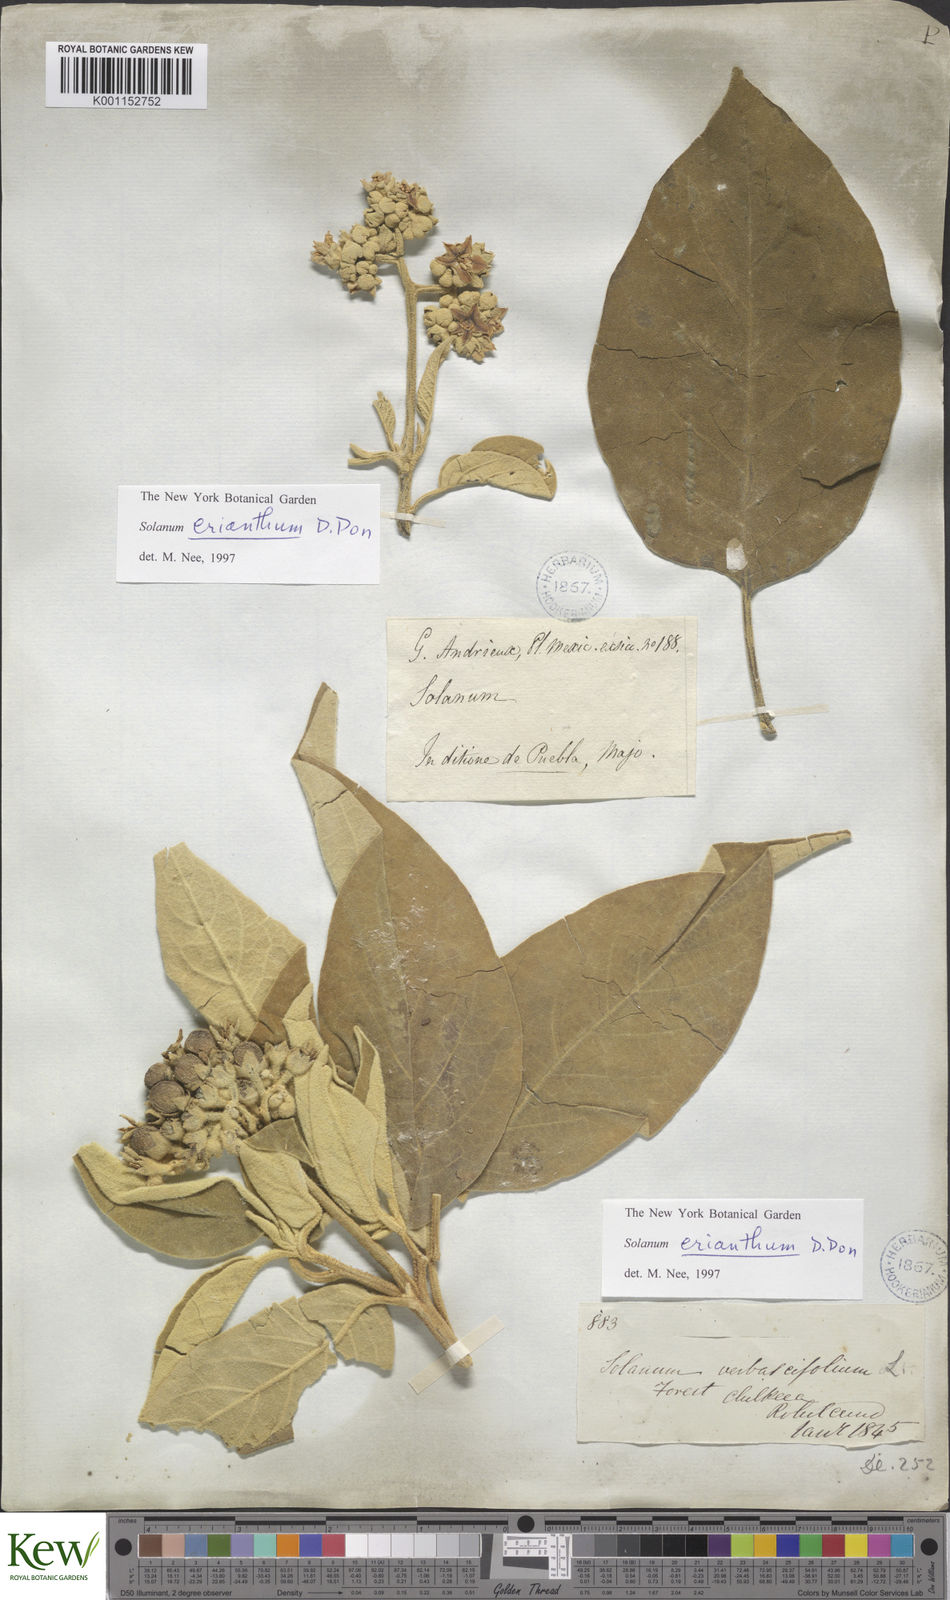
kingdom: Plantae
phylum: Tracheophyta
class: Magnoliopsida
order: Solanales
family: Solanaceae
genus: Solanum
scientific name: Solanum erianthum
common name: Tobacco-tree
